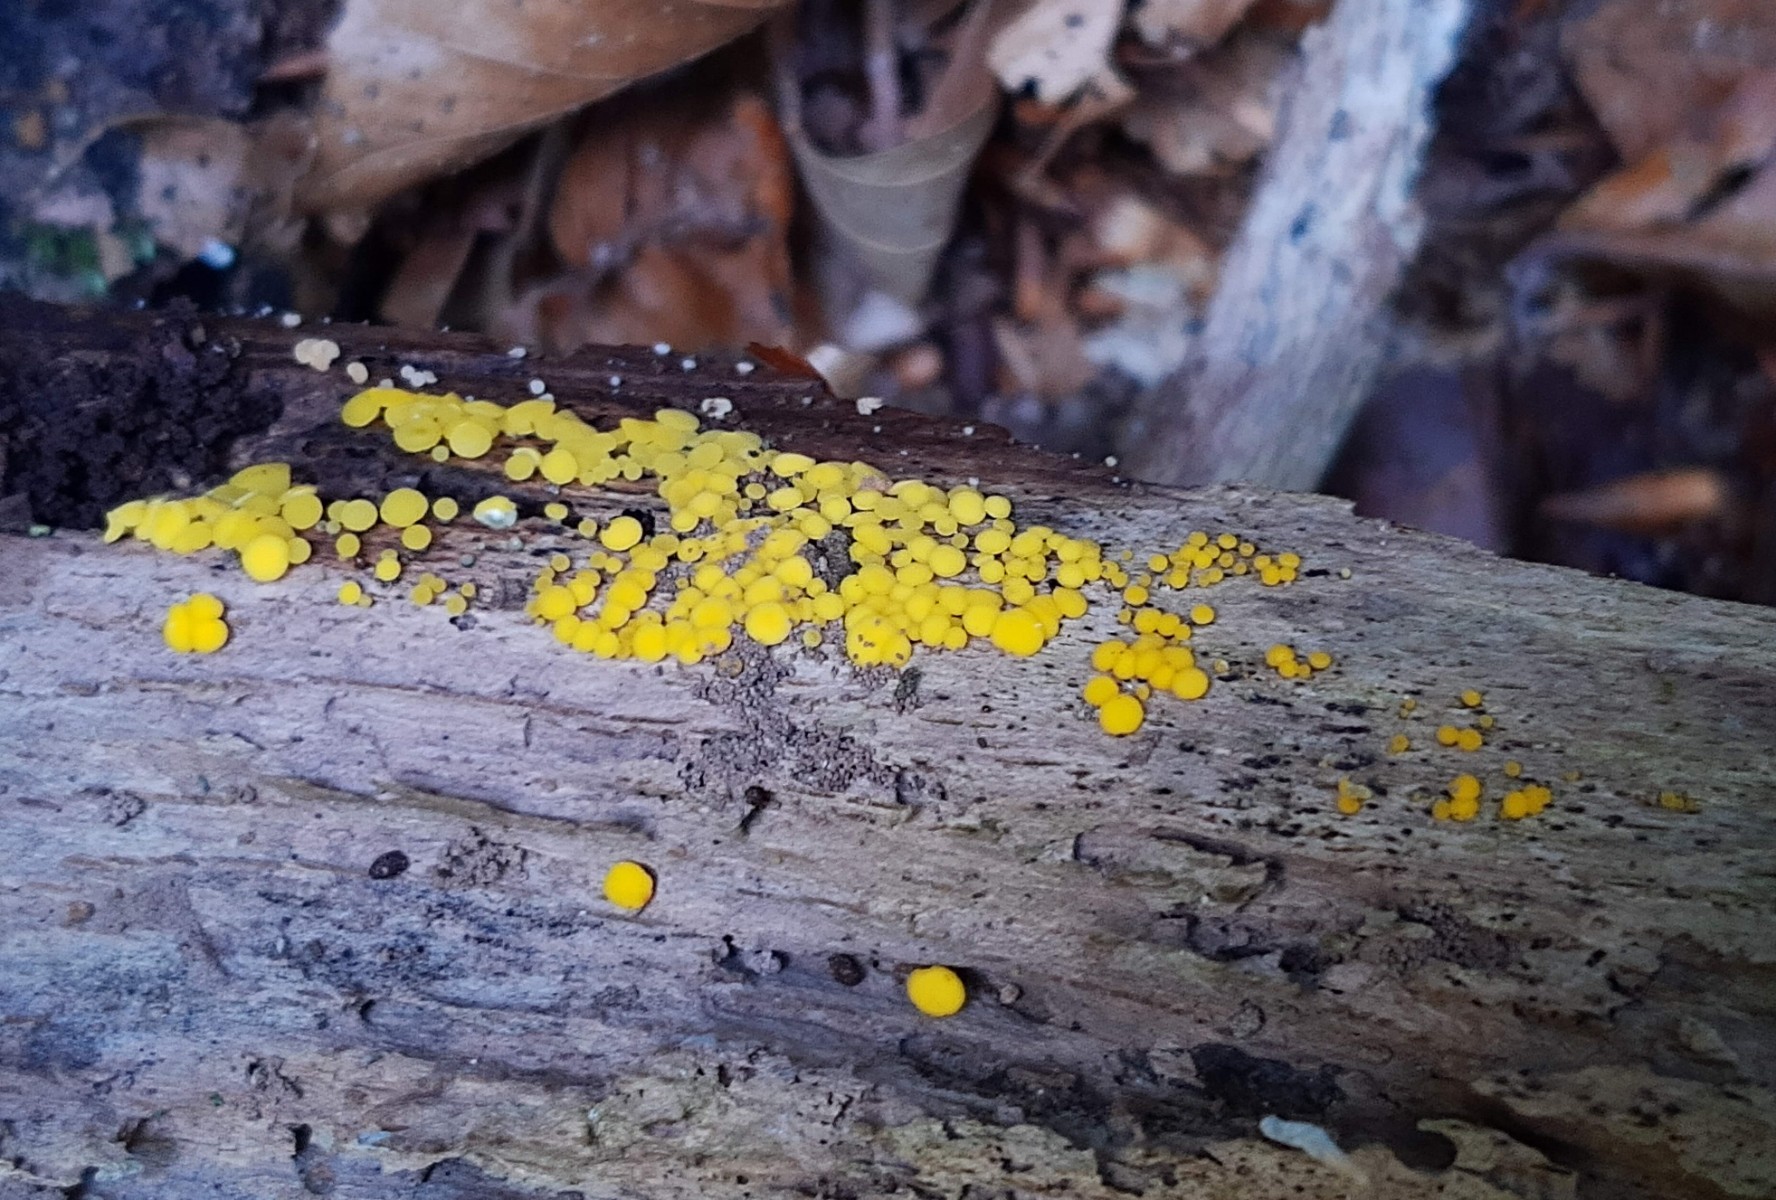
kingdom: Fungi
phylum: Ascomycota
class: Leotiomycetes
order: Helotiales
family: Pezizellaceae
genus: Calycina
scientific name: Calycina citrina
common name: almindelig gulskive
